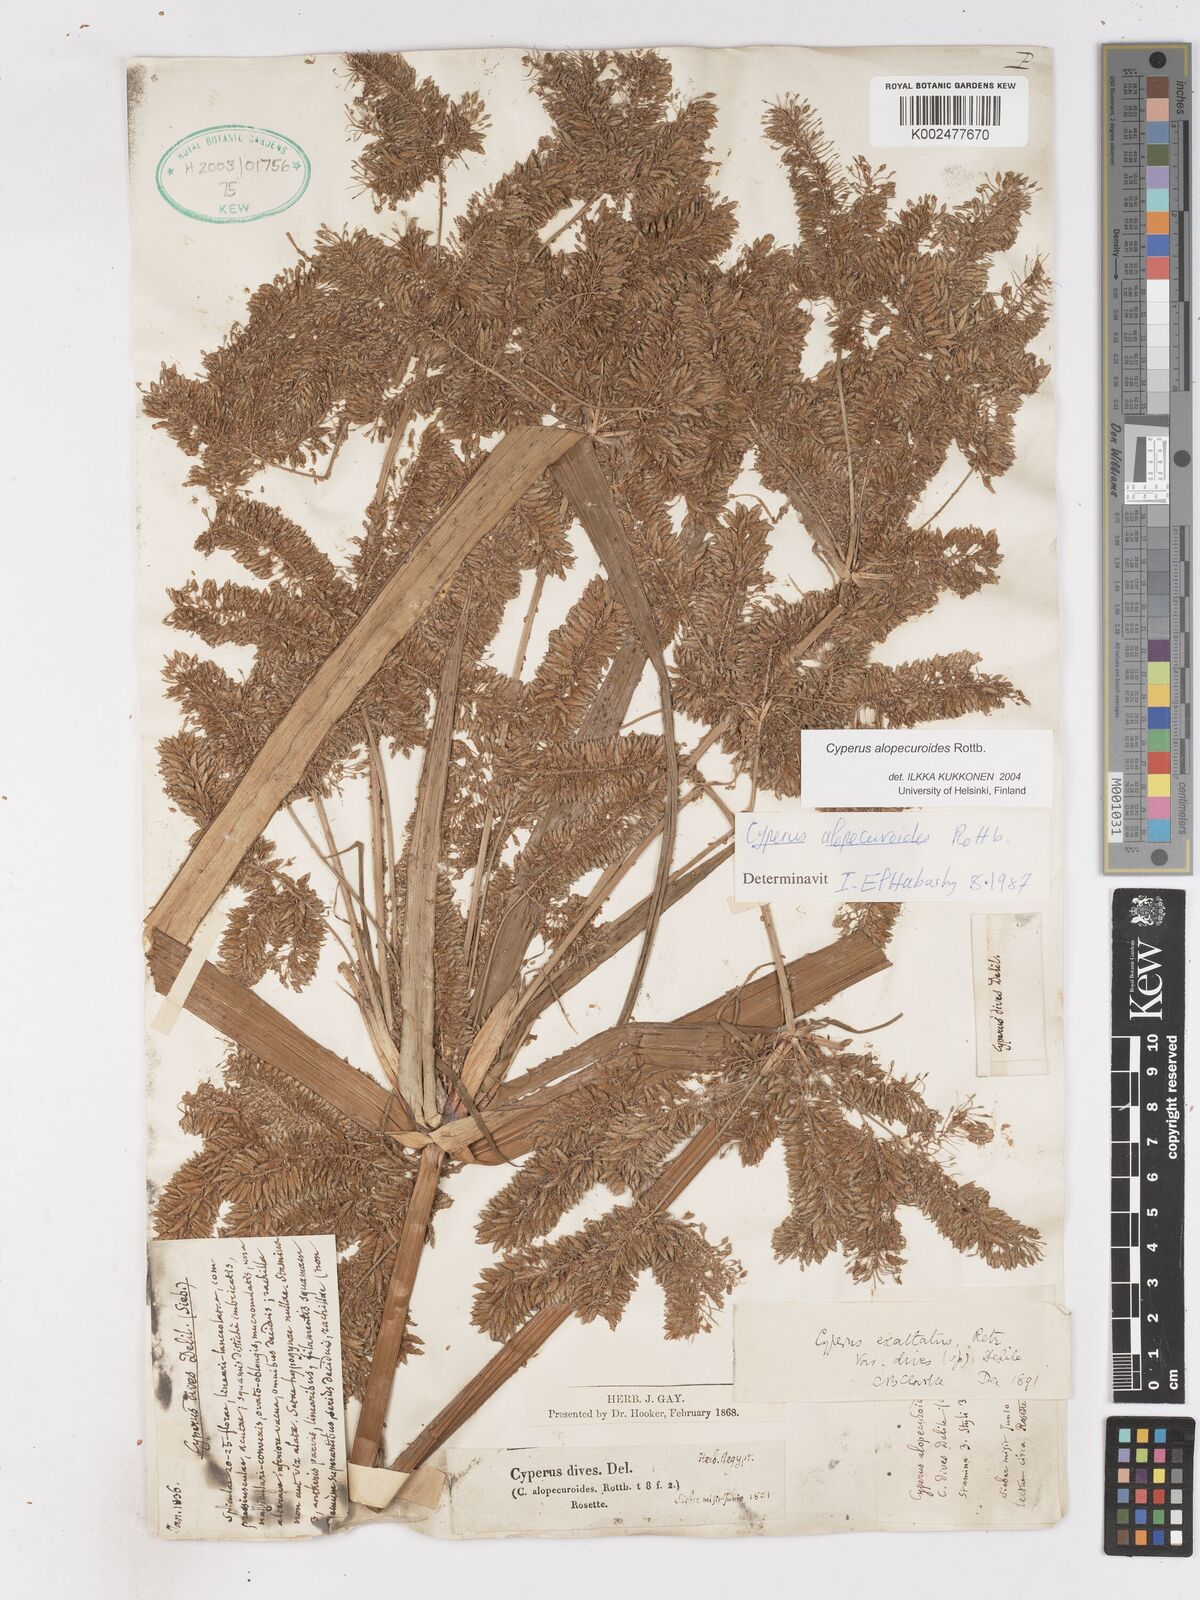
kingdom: Plantae
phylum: Tracheophyta
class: Liliopsida
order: Poales
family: Cyperaceae
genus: Cyperus
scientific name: Cyperus alopecuroides
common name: Foxtail flatsedge
